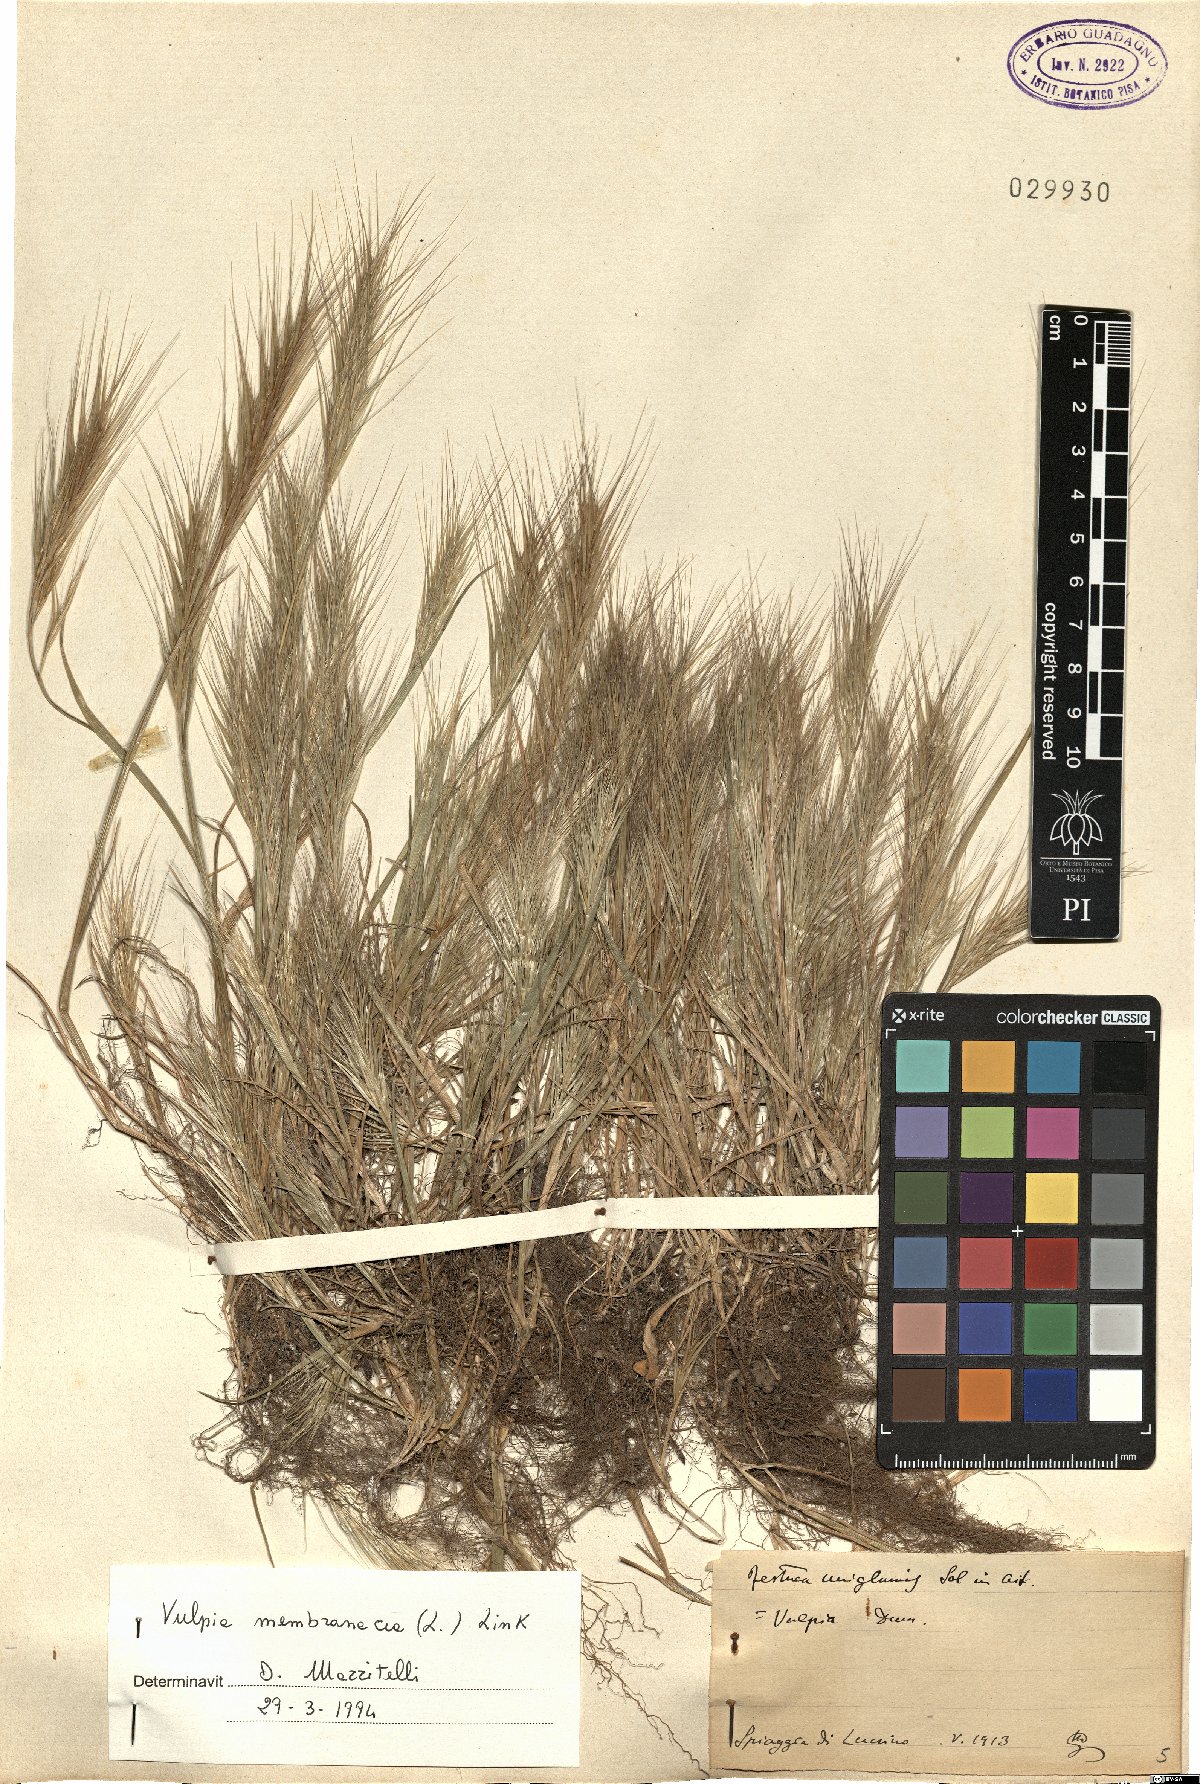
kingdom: Plantae
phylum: Tracheophyta
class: Liliopsida
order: Poales
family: Poaceae
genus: Festuca
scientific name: Festuca membranacea
